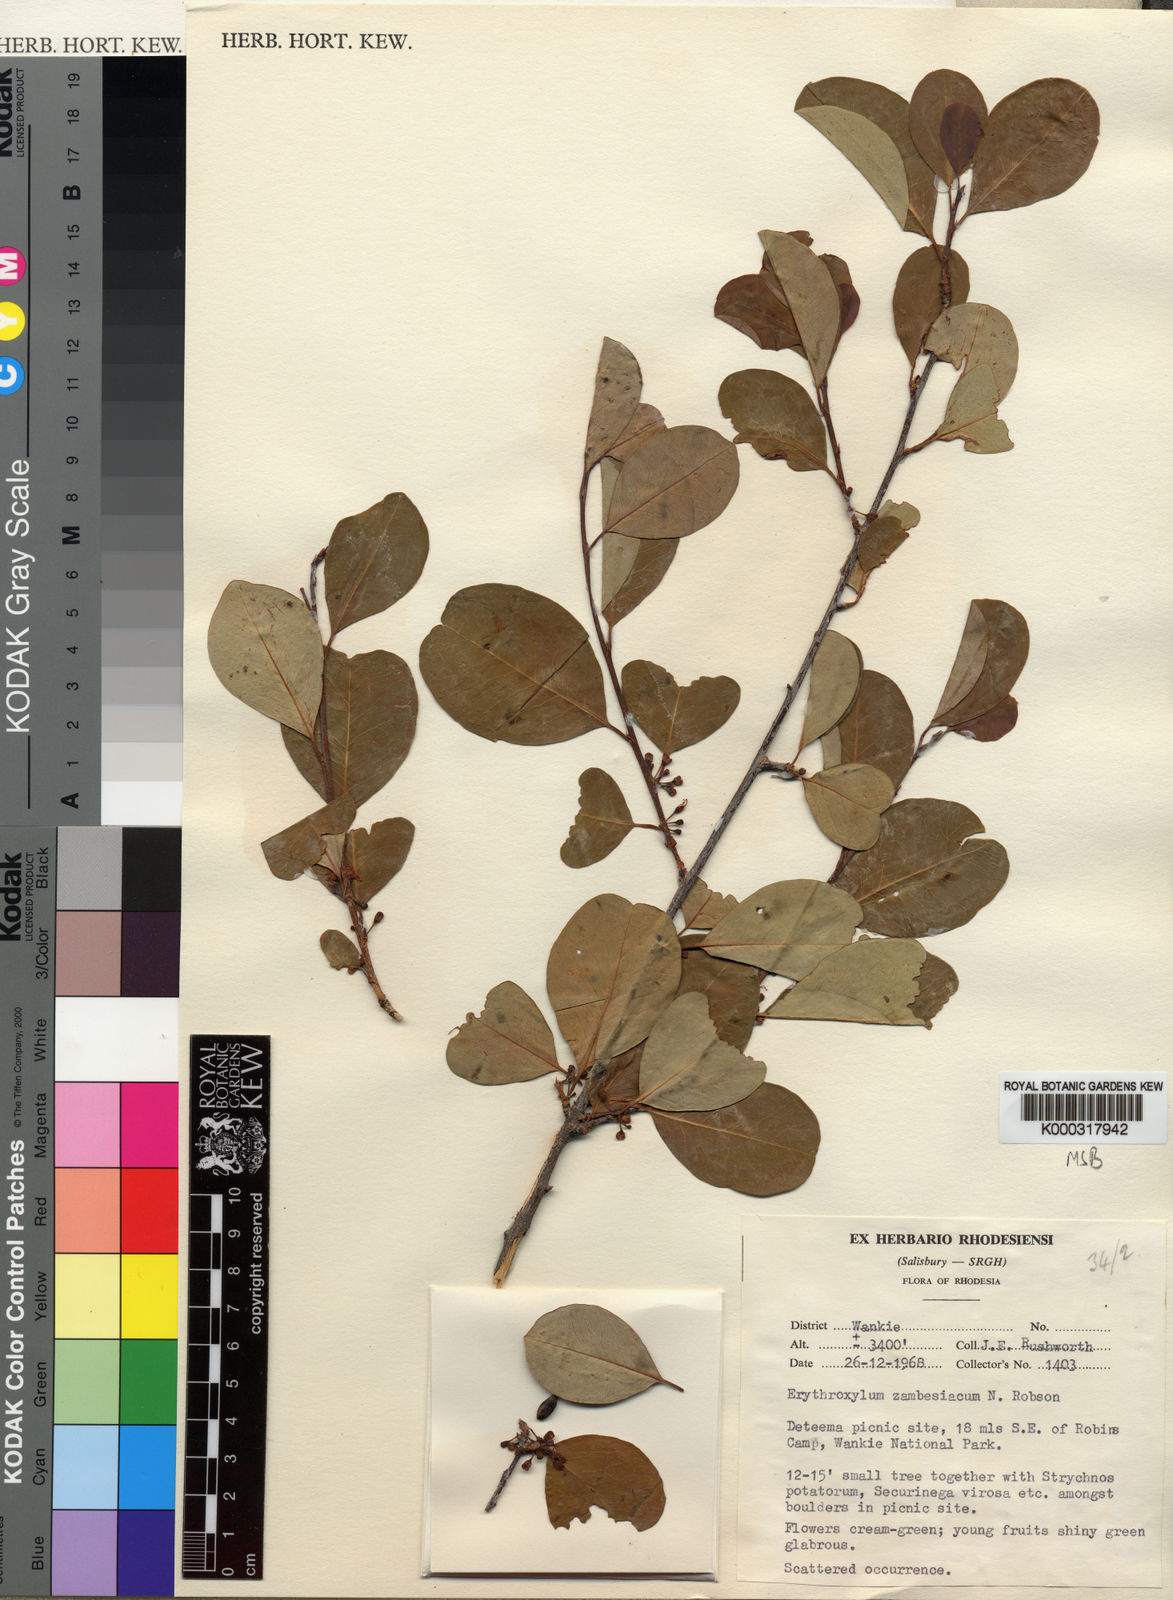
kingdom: Plantae
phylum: Tracheophyta
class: Magnoliopsida
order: Malpighiales
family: Erythroxylaceae
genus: Erythroxylum
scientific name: Erythroxylum zambesiacum
